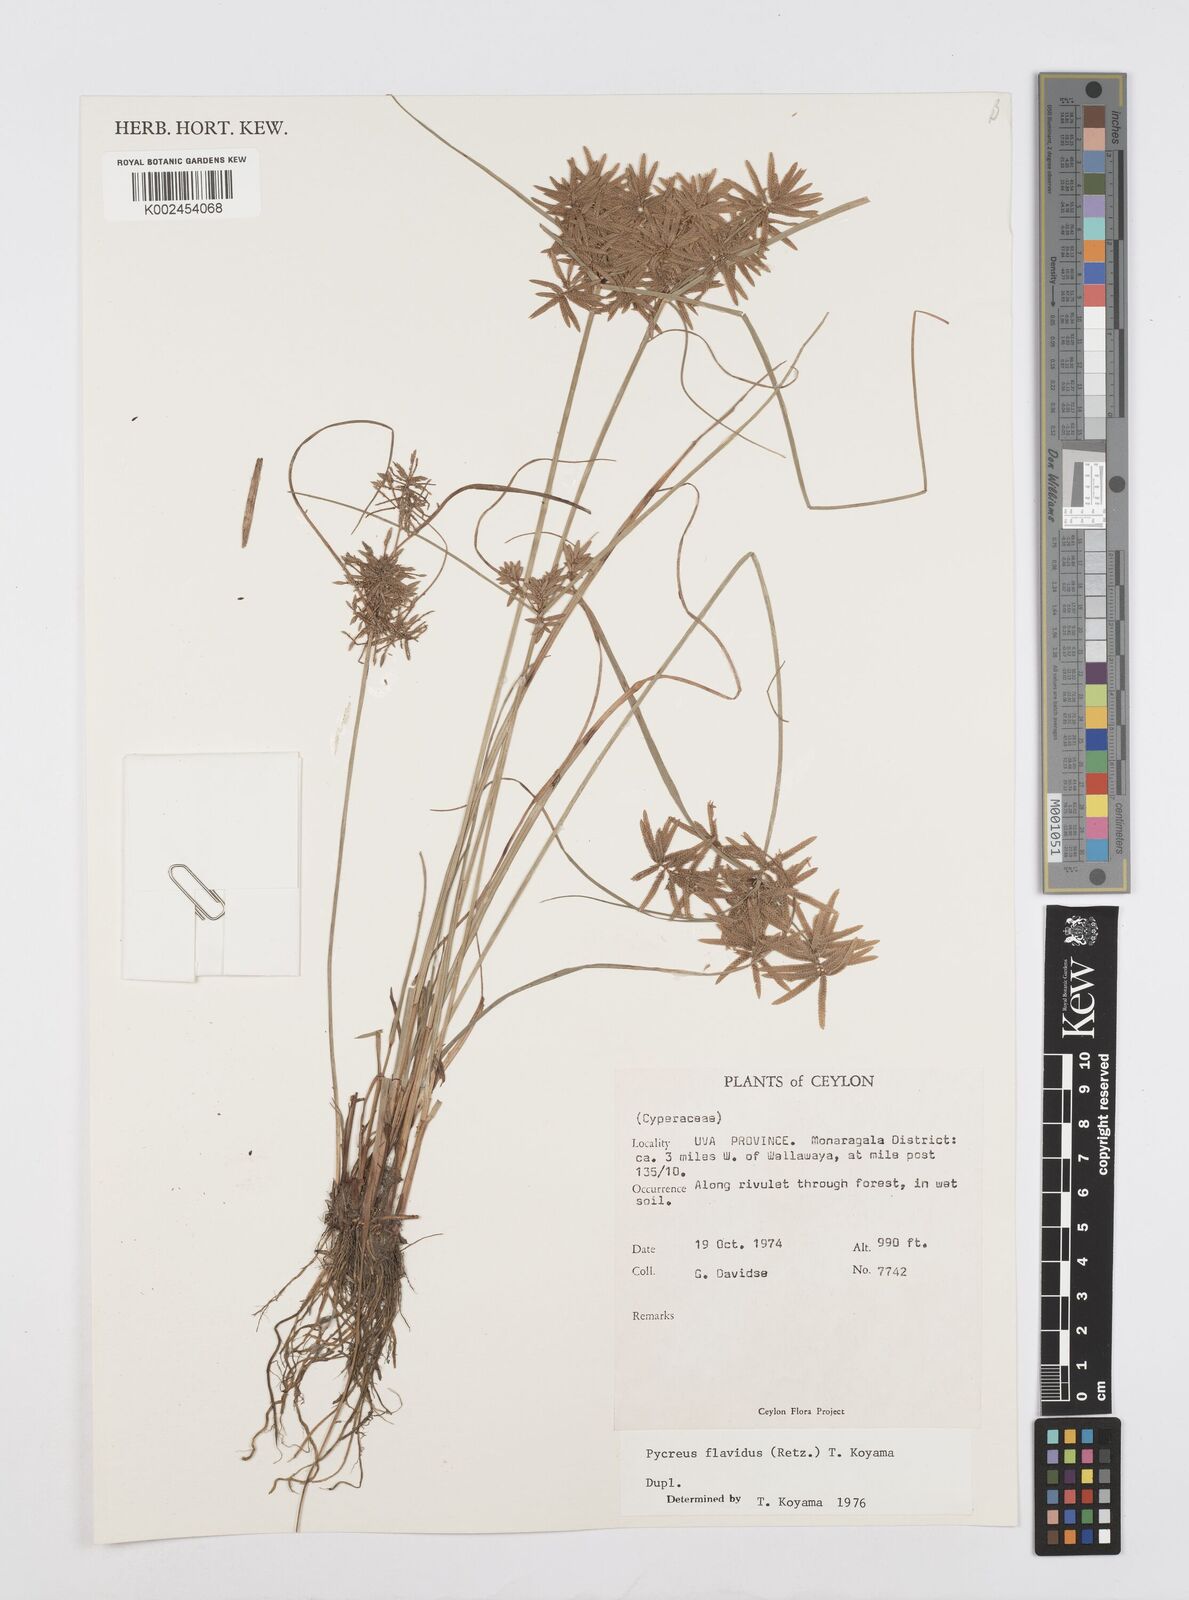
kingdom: Plantae
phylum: Tracheophyta
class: Liliopsida
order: Poales
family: Cyperaceae
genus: Cyperus
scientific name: Cyperus flavidus
